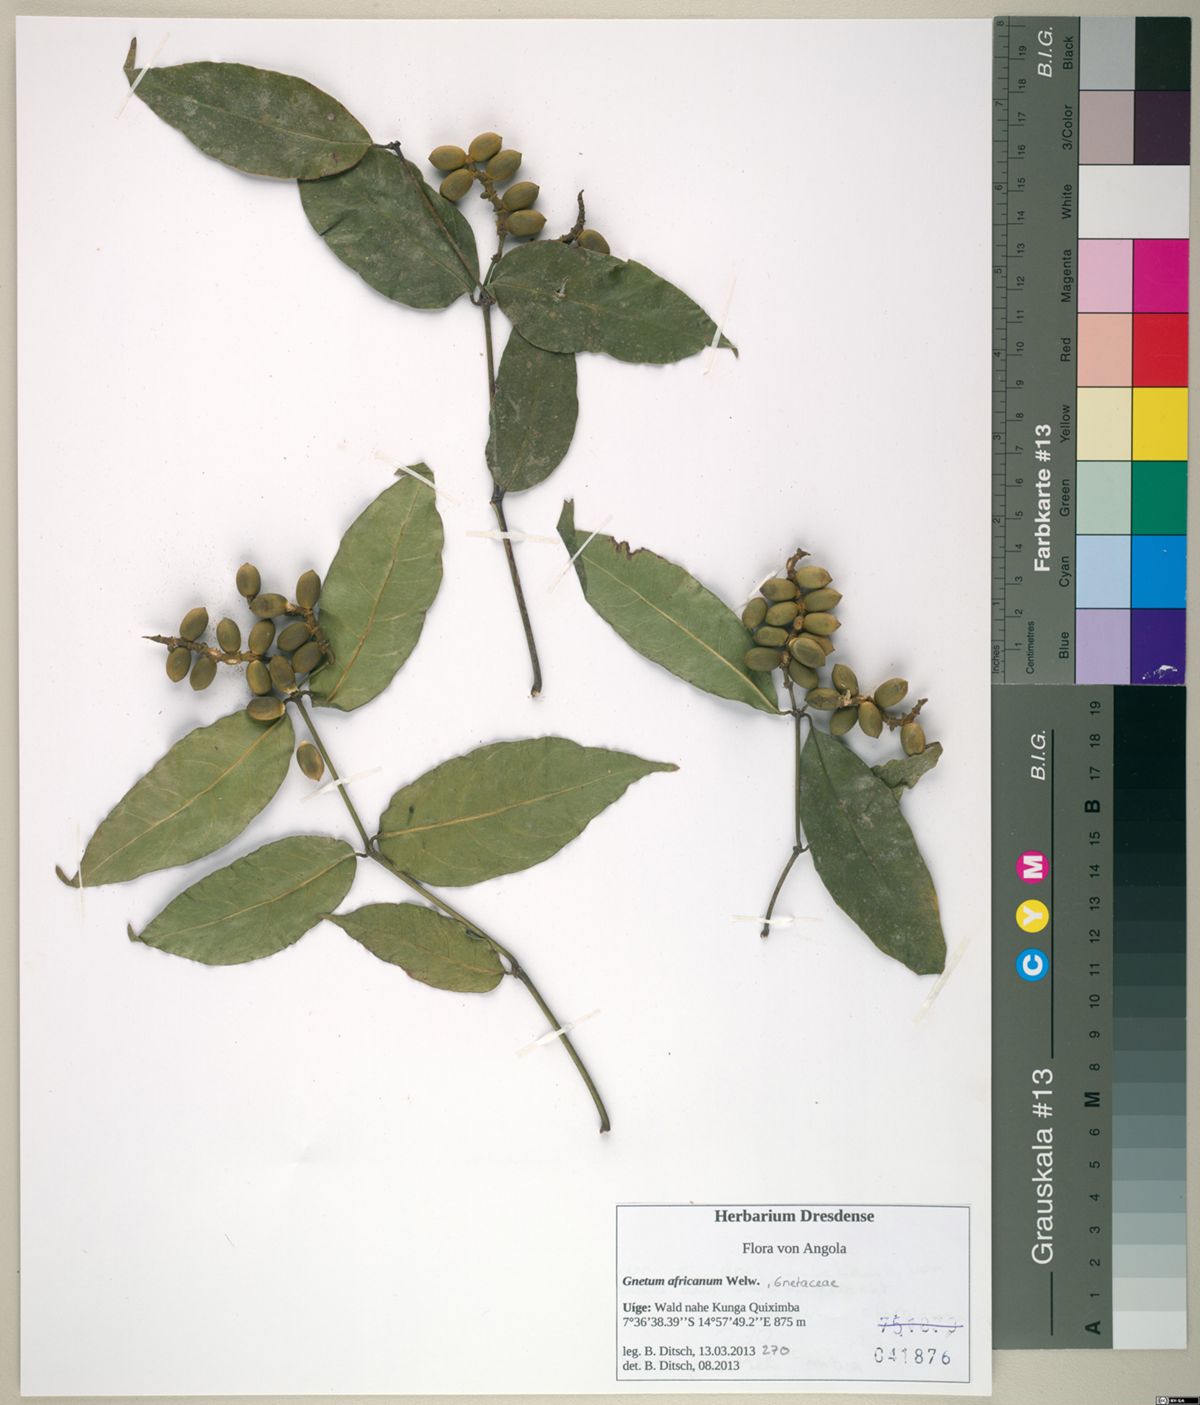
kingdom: Plantae
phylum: Tracheophyta
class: Gnetopsida
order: Gnetales
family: Gnetaceae
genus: Gnetum
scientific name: Gnetum africanum
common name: Eru
